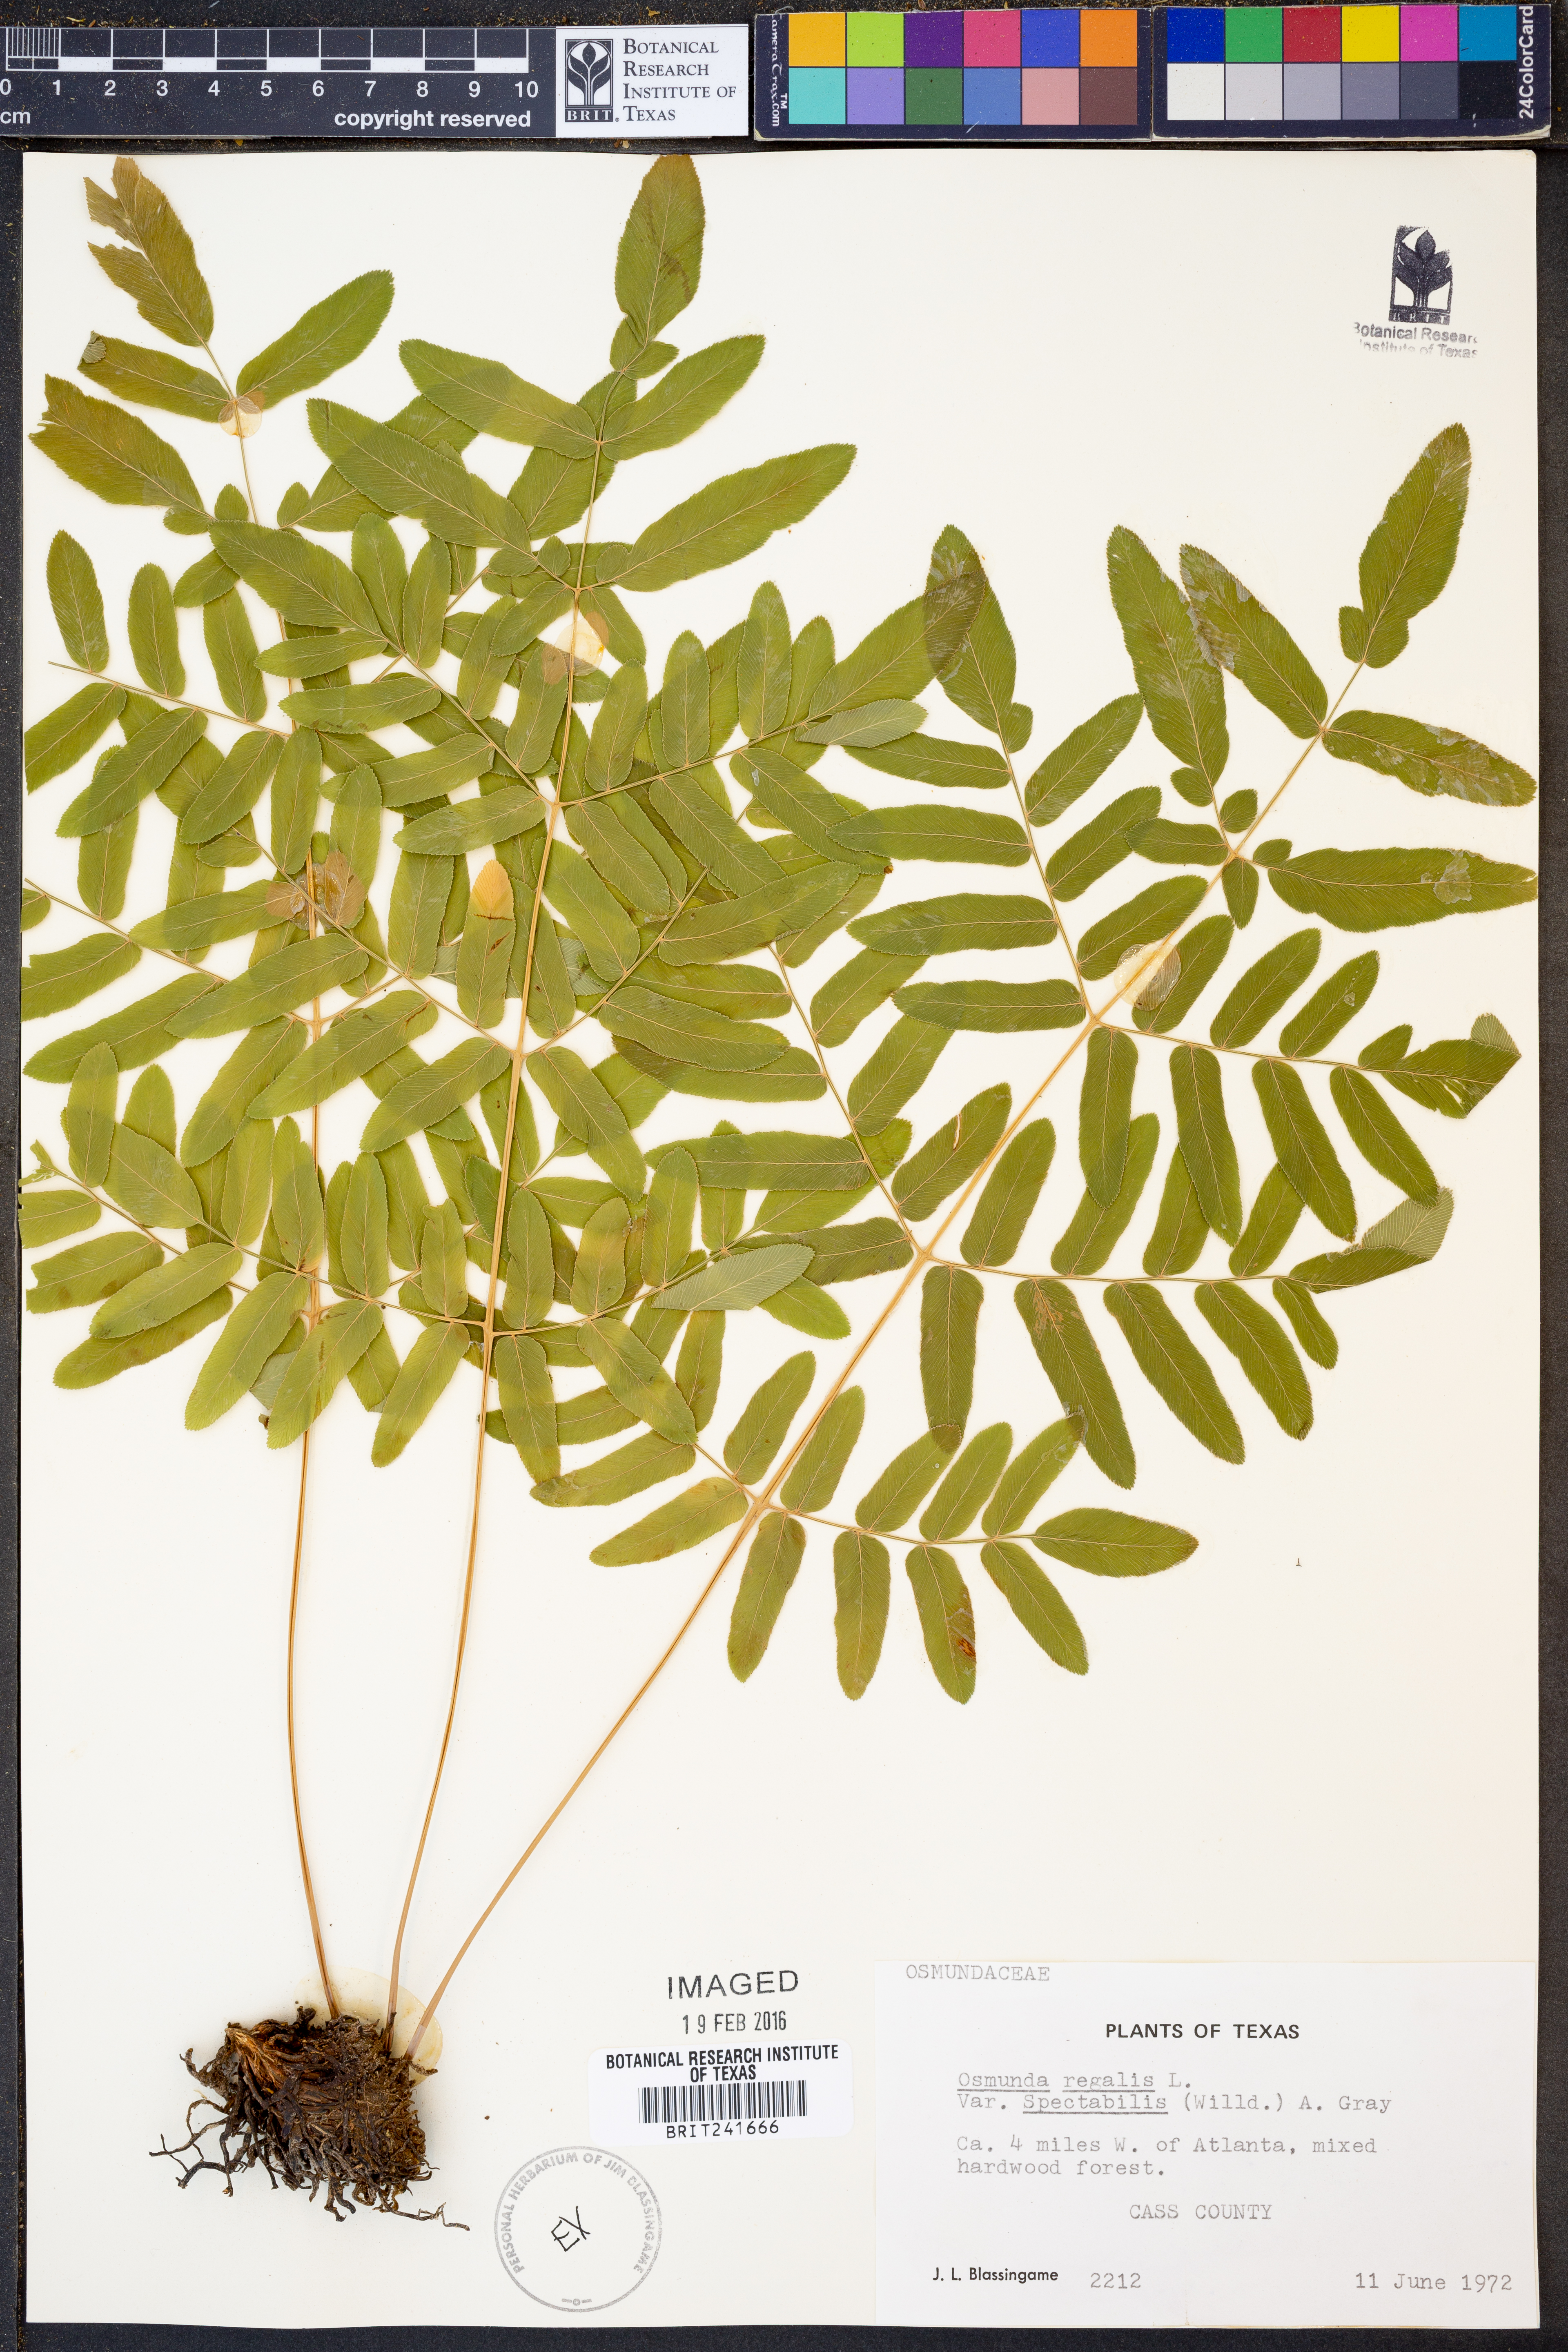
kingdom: Plantae
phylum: Tracheophyta
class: Polypodiopsida
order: Osmundales
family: Osmundaceae
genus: Osmunda
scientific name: Osmunda spectabilis
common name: American royal fern
